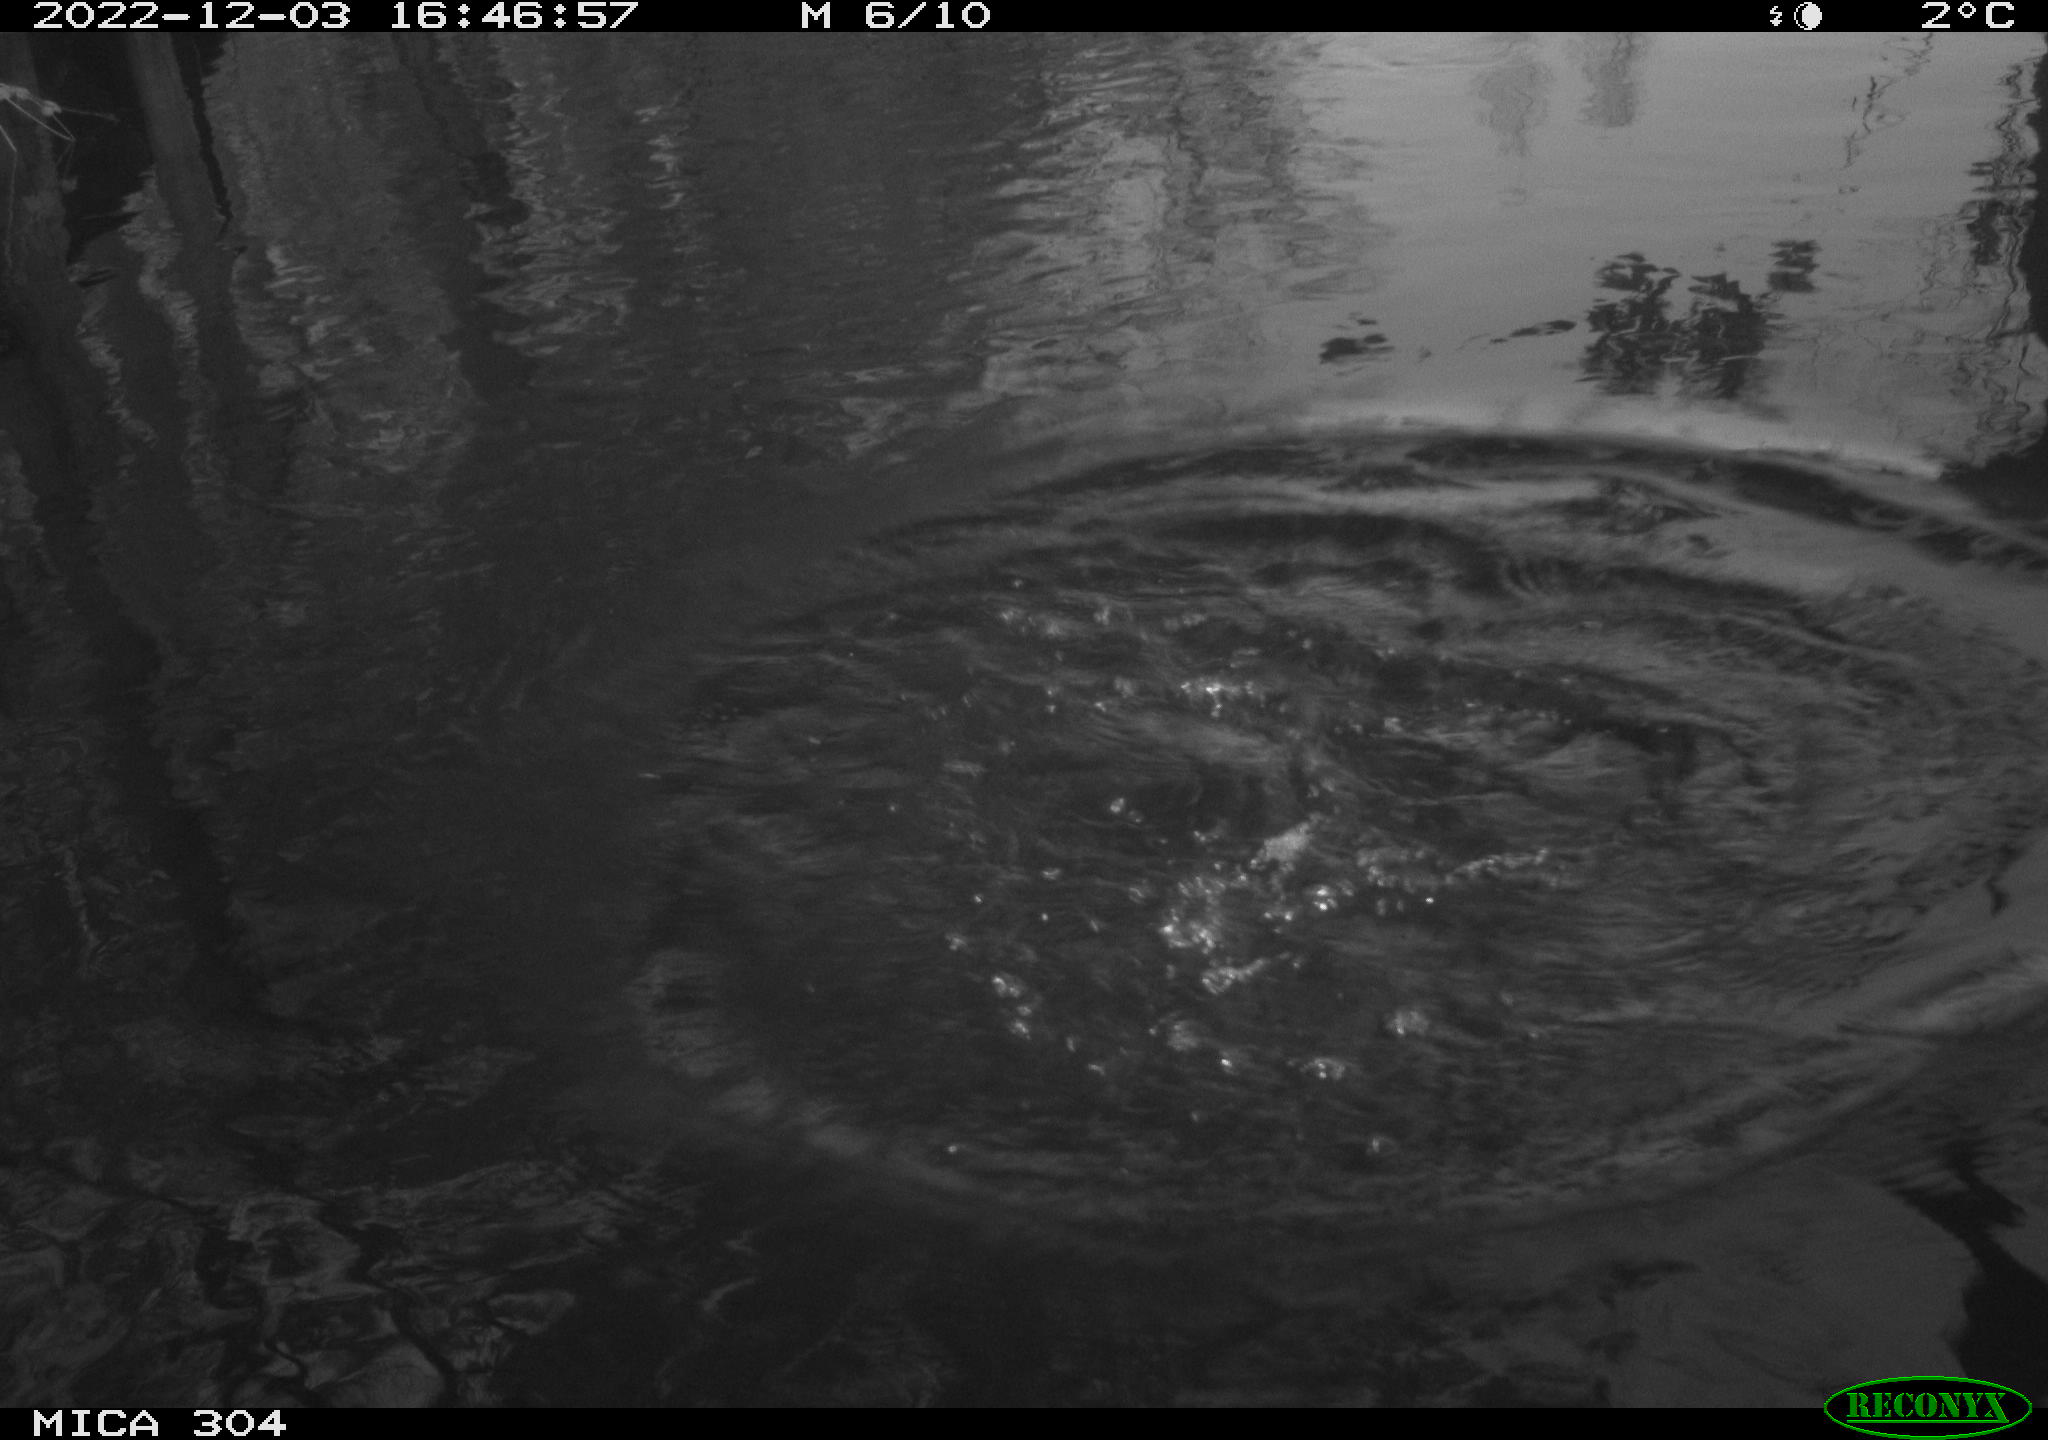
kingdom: Animalia
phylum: Chordata
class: Aves
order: Anseriformes
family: Anatidae
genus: Anas
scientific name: Anas
